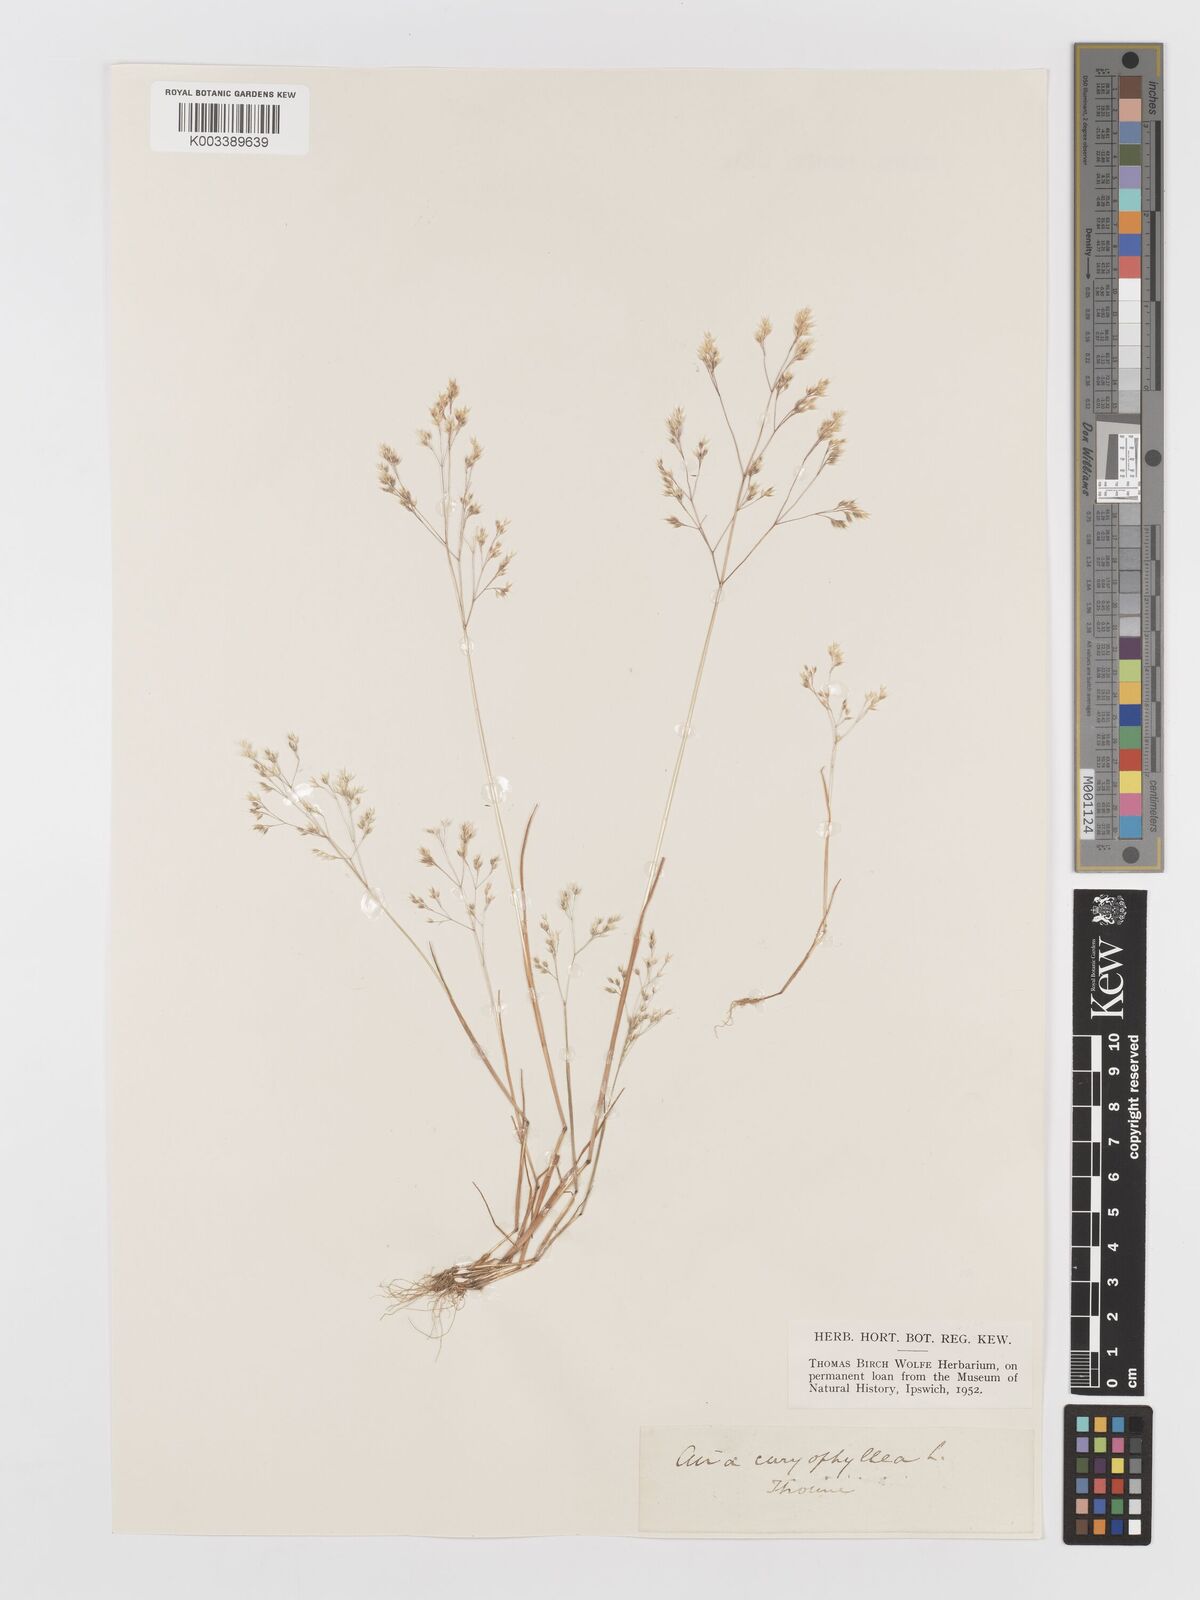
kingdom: Plantae
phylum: Tracheophyta
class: Liliopsida
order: Poales
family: Poaceae
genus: Aira
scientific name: Aira caryophyllea
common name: Silver hairgrass
